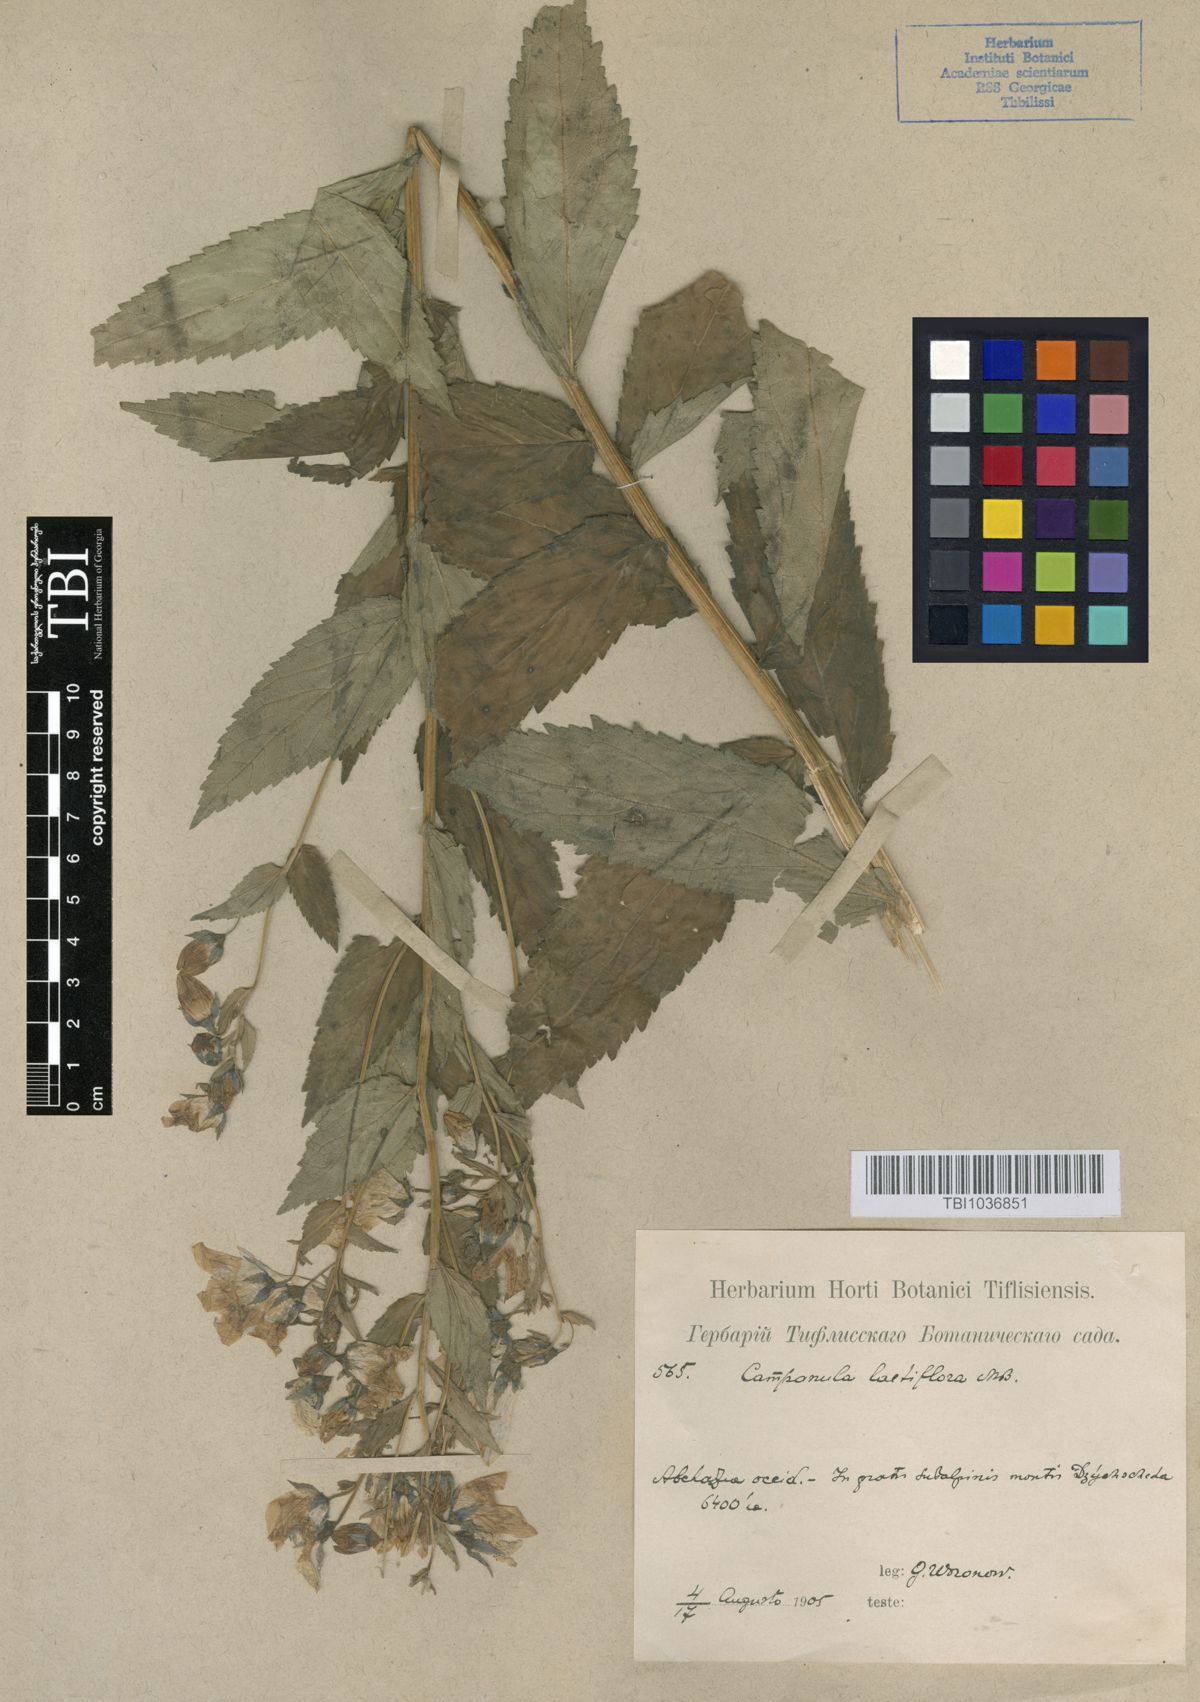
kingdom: Plantae
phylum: Tracheophyta
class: Magnoliopsida
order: Asterales
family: Campanulaceae
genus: Campanula
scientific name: Campanula lactiflora
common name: Milky bellflower
